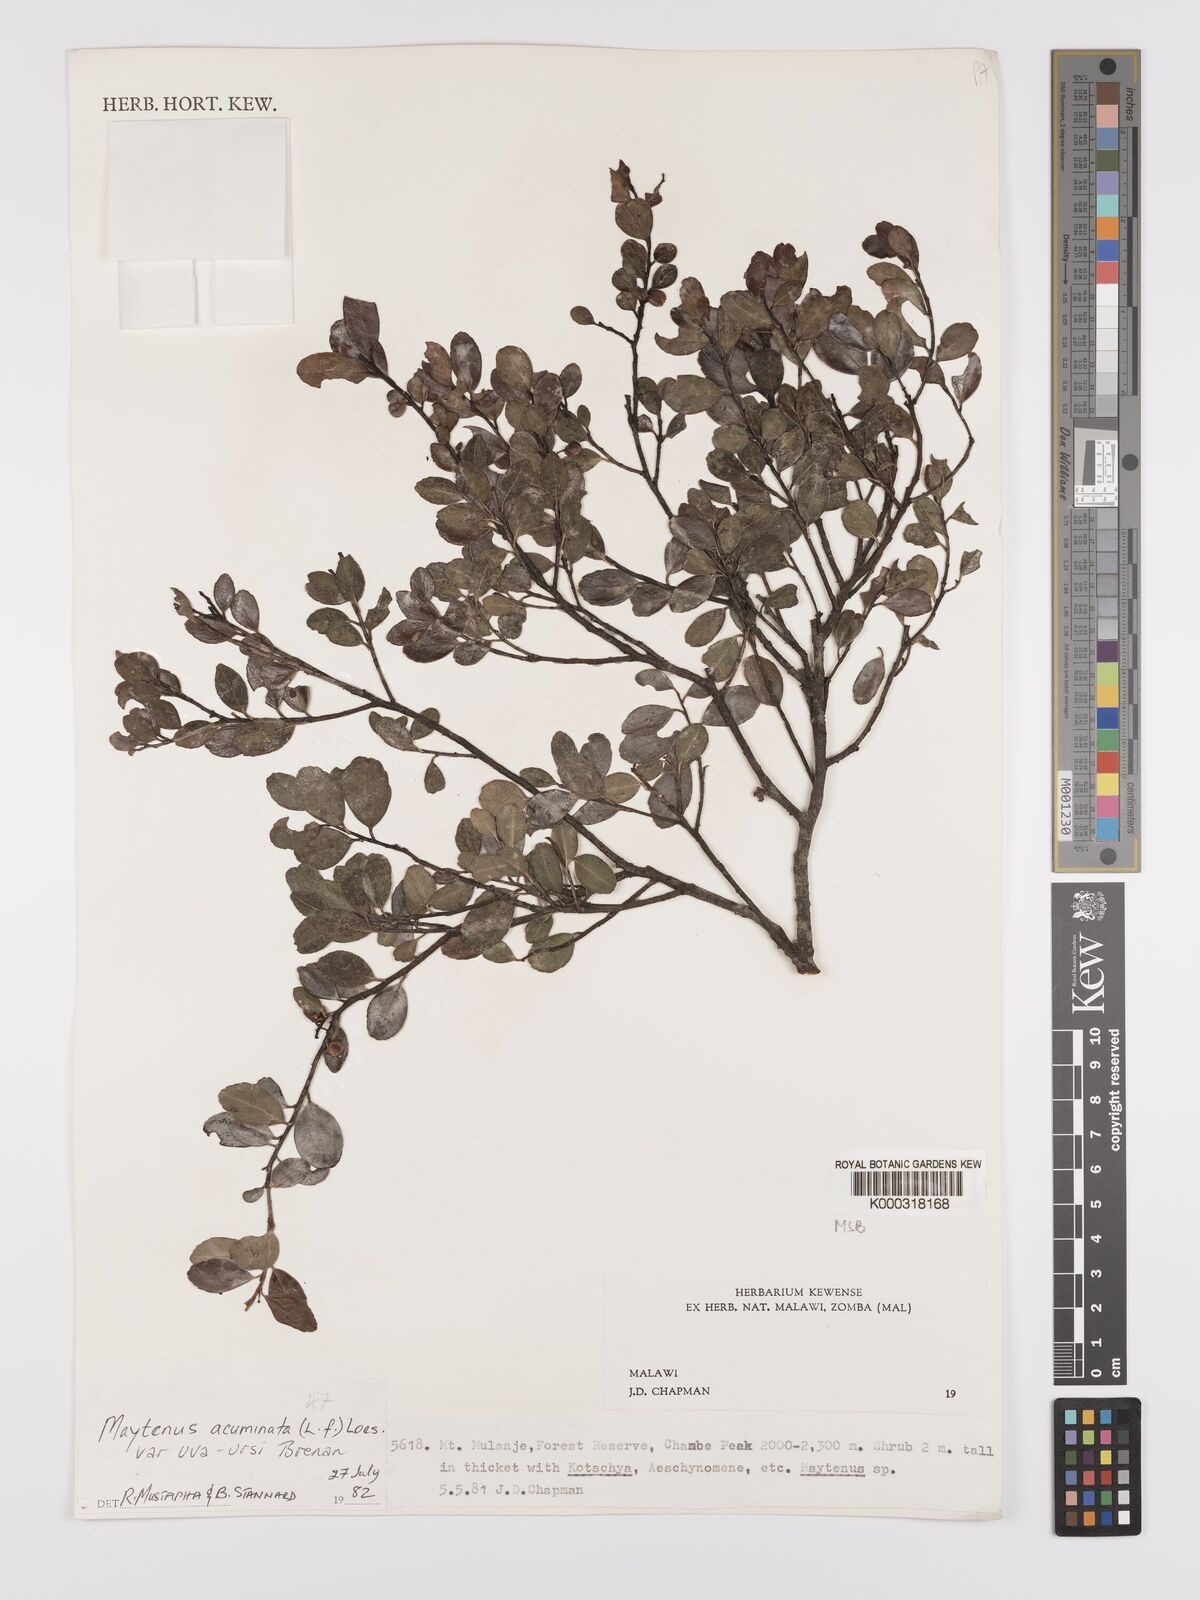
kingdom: Plantae
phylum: Tracheophyta
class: Magnoliopsida
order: Celastrales
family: Celastraceae
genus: Maytenus
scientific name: Maytenus
